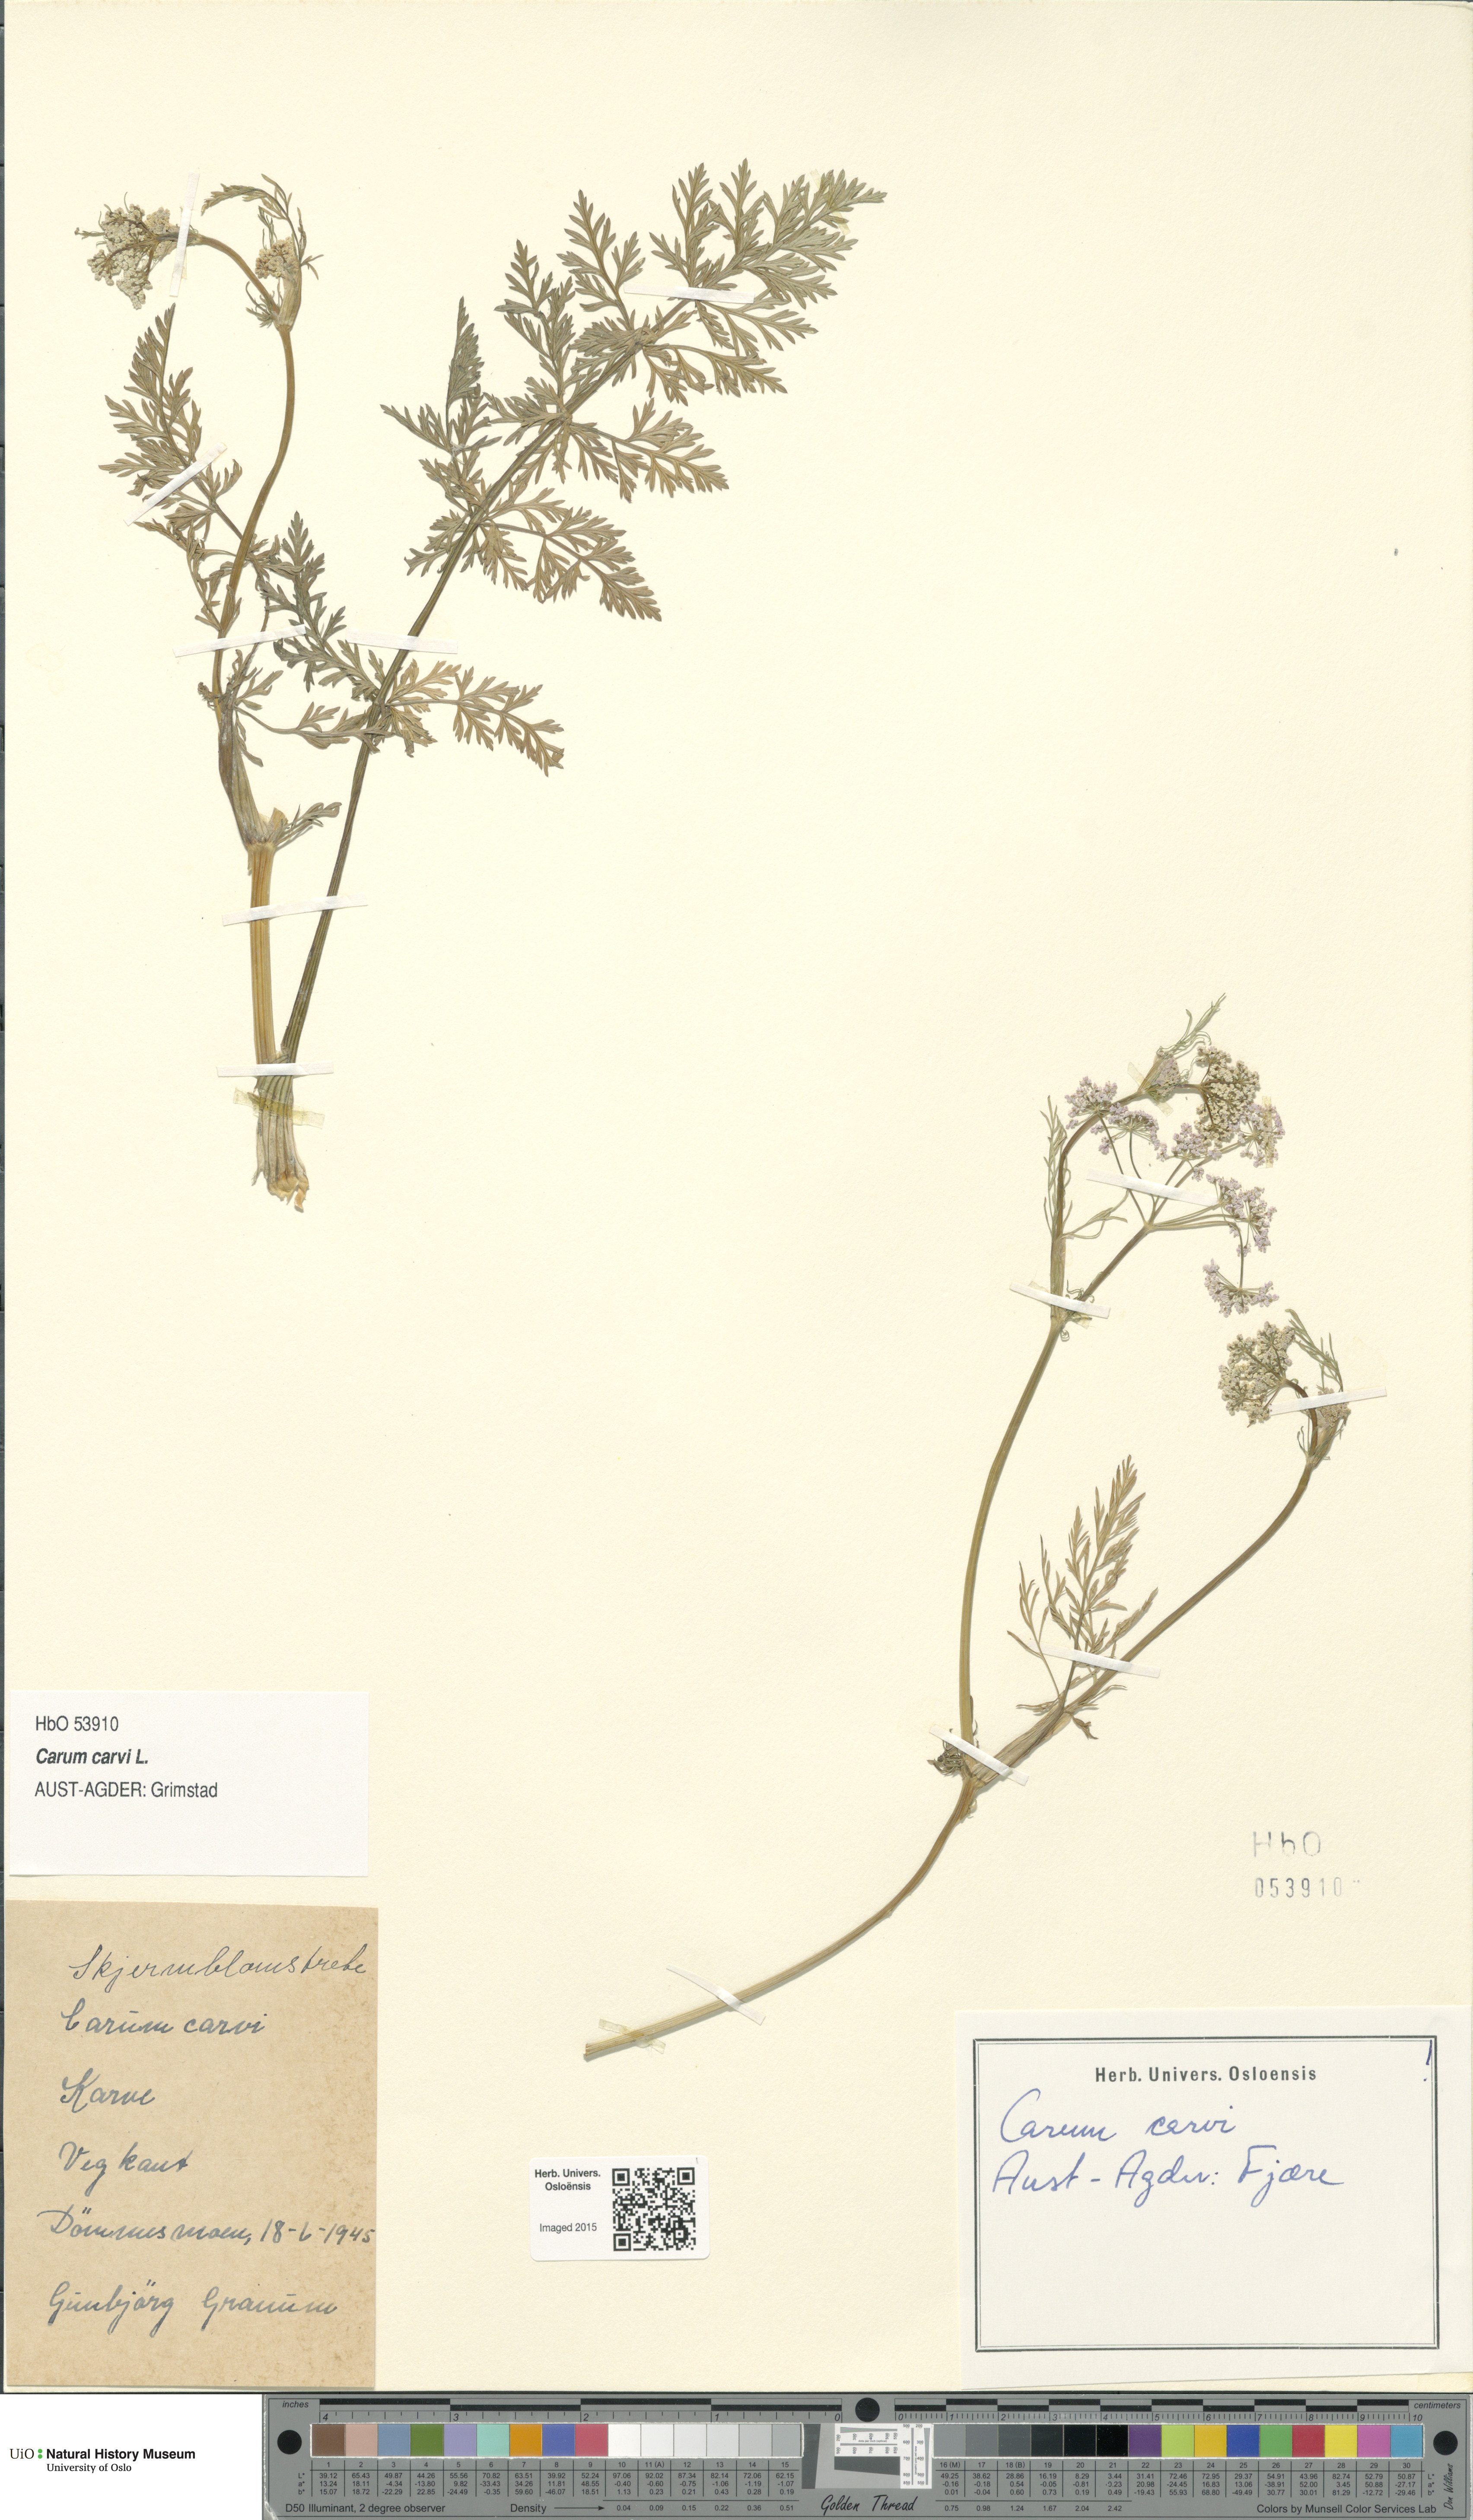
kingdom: Plantae
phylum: Tracheophyta
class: Magnoliopsida
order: Apiales
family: Apiaceae
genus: Carum
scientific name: Carum carvi
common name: Caraway
